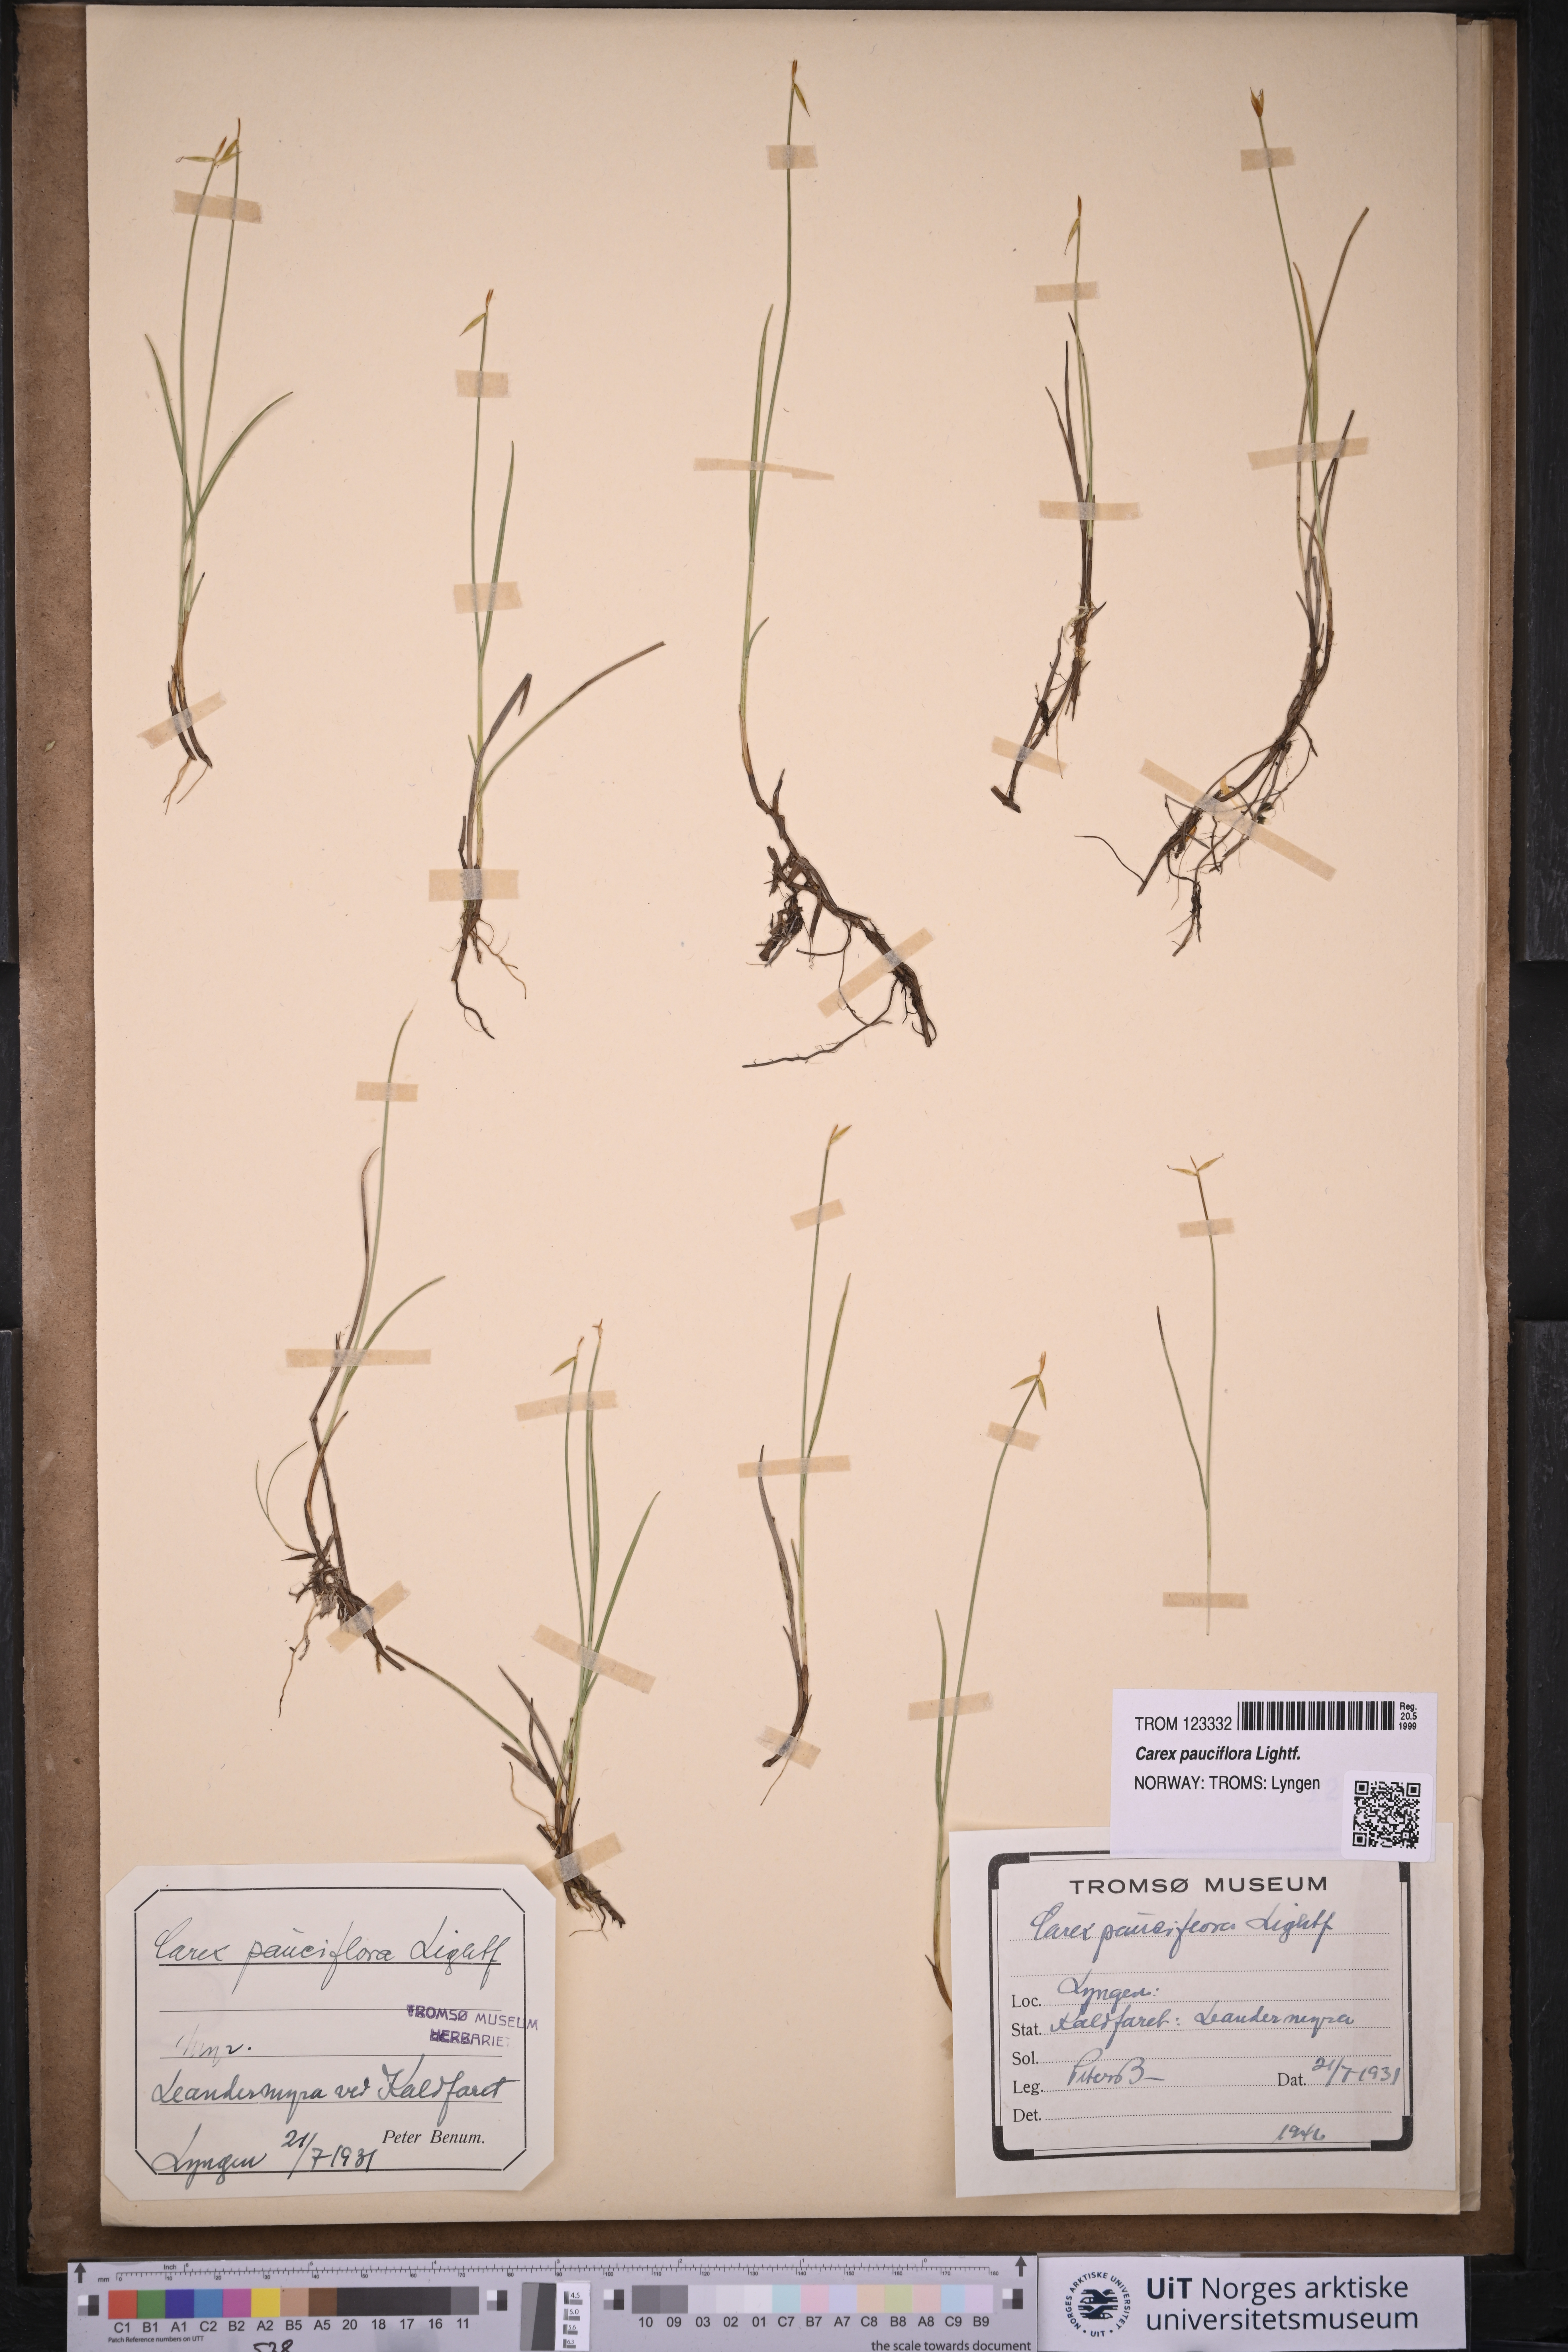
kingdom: Plantae
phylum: Tracheophyta
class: Liliopsida
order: Poales
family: Cyperaceae
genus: Carex
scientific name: Carex pauciflora
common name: Few-flowered sedge
